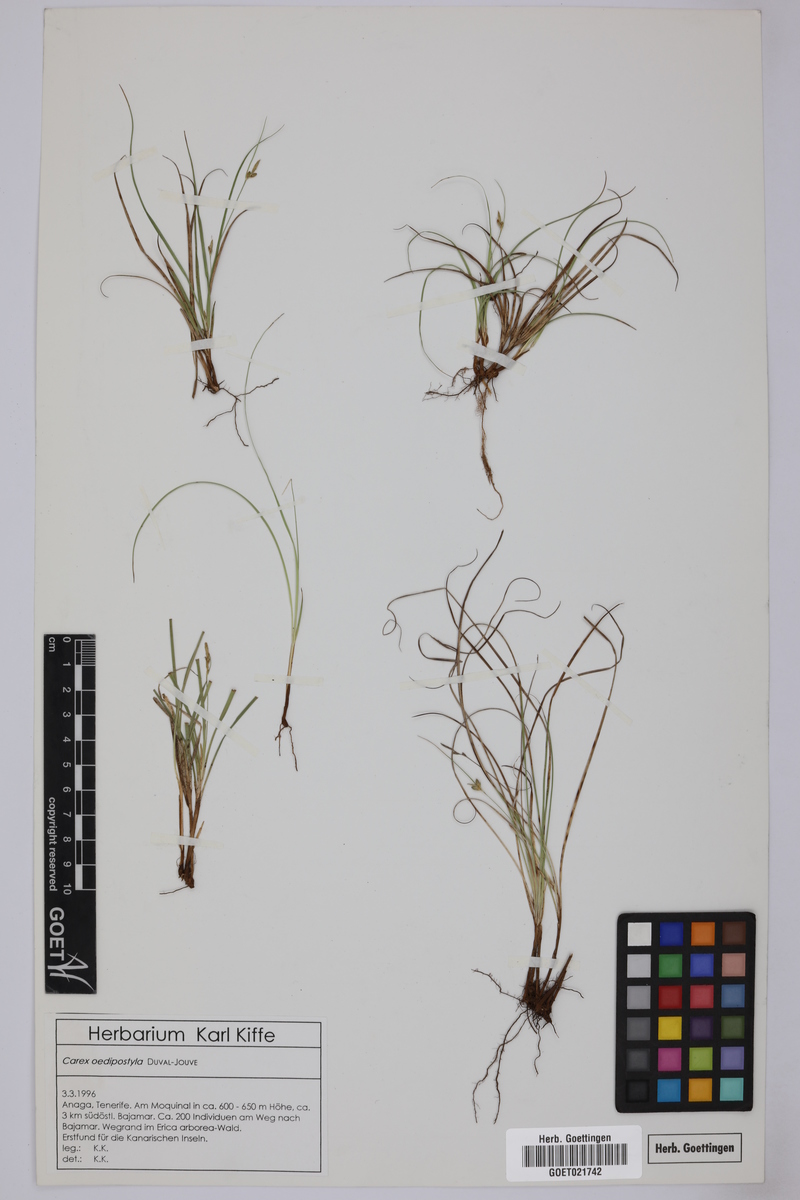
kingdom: Plantae
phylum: Tracheophyta
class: Liliopsida
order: Poales
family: Cyperaceae
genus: Carex
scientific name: Carex oedipostyla
